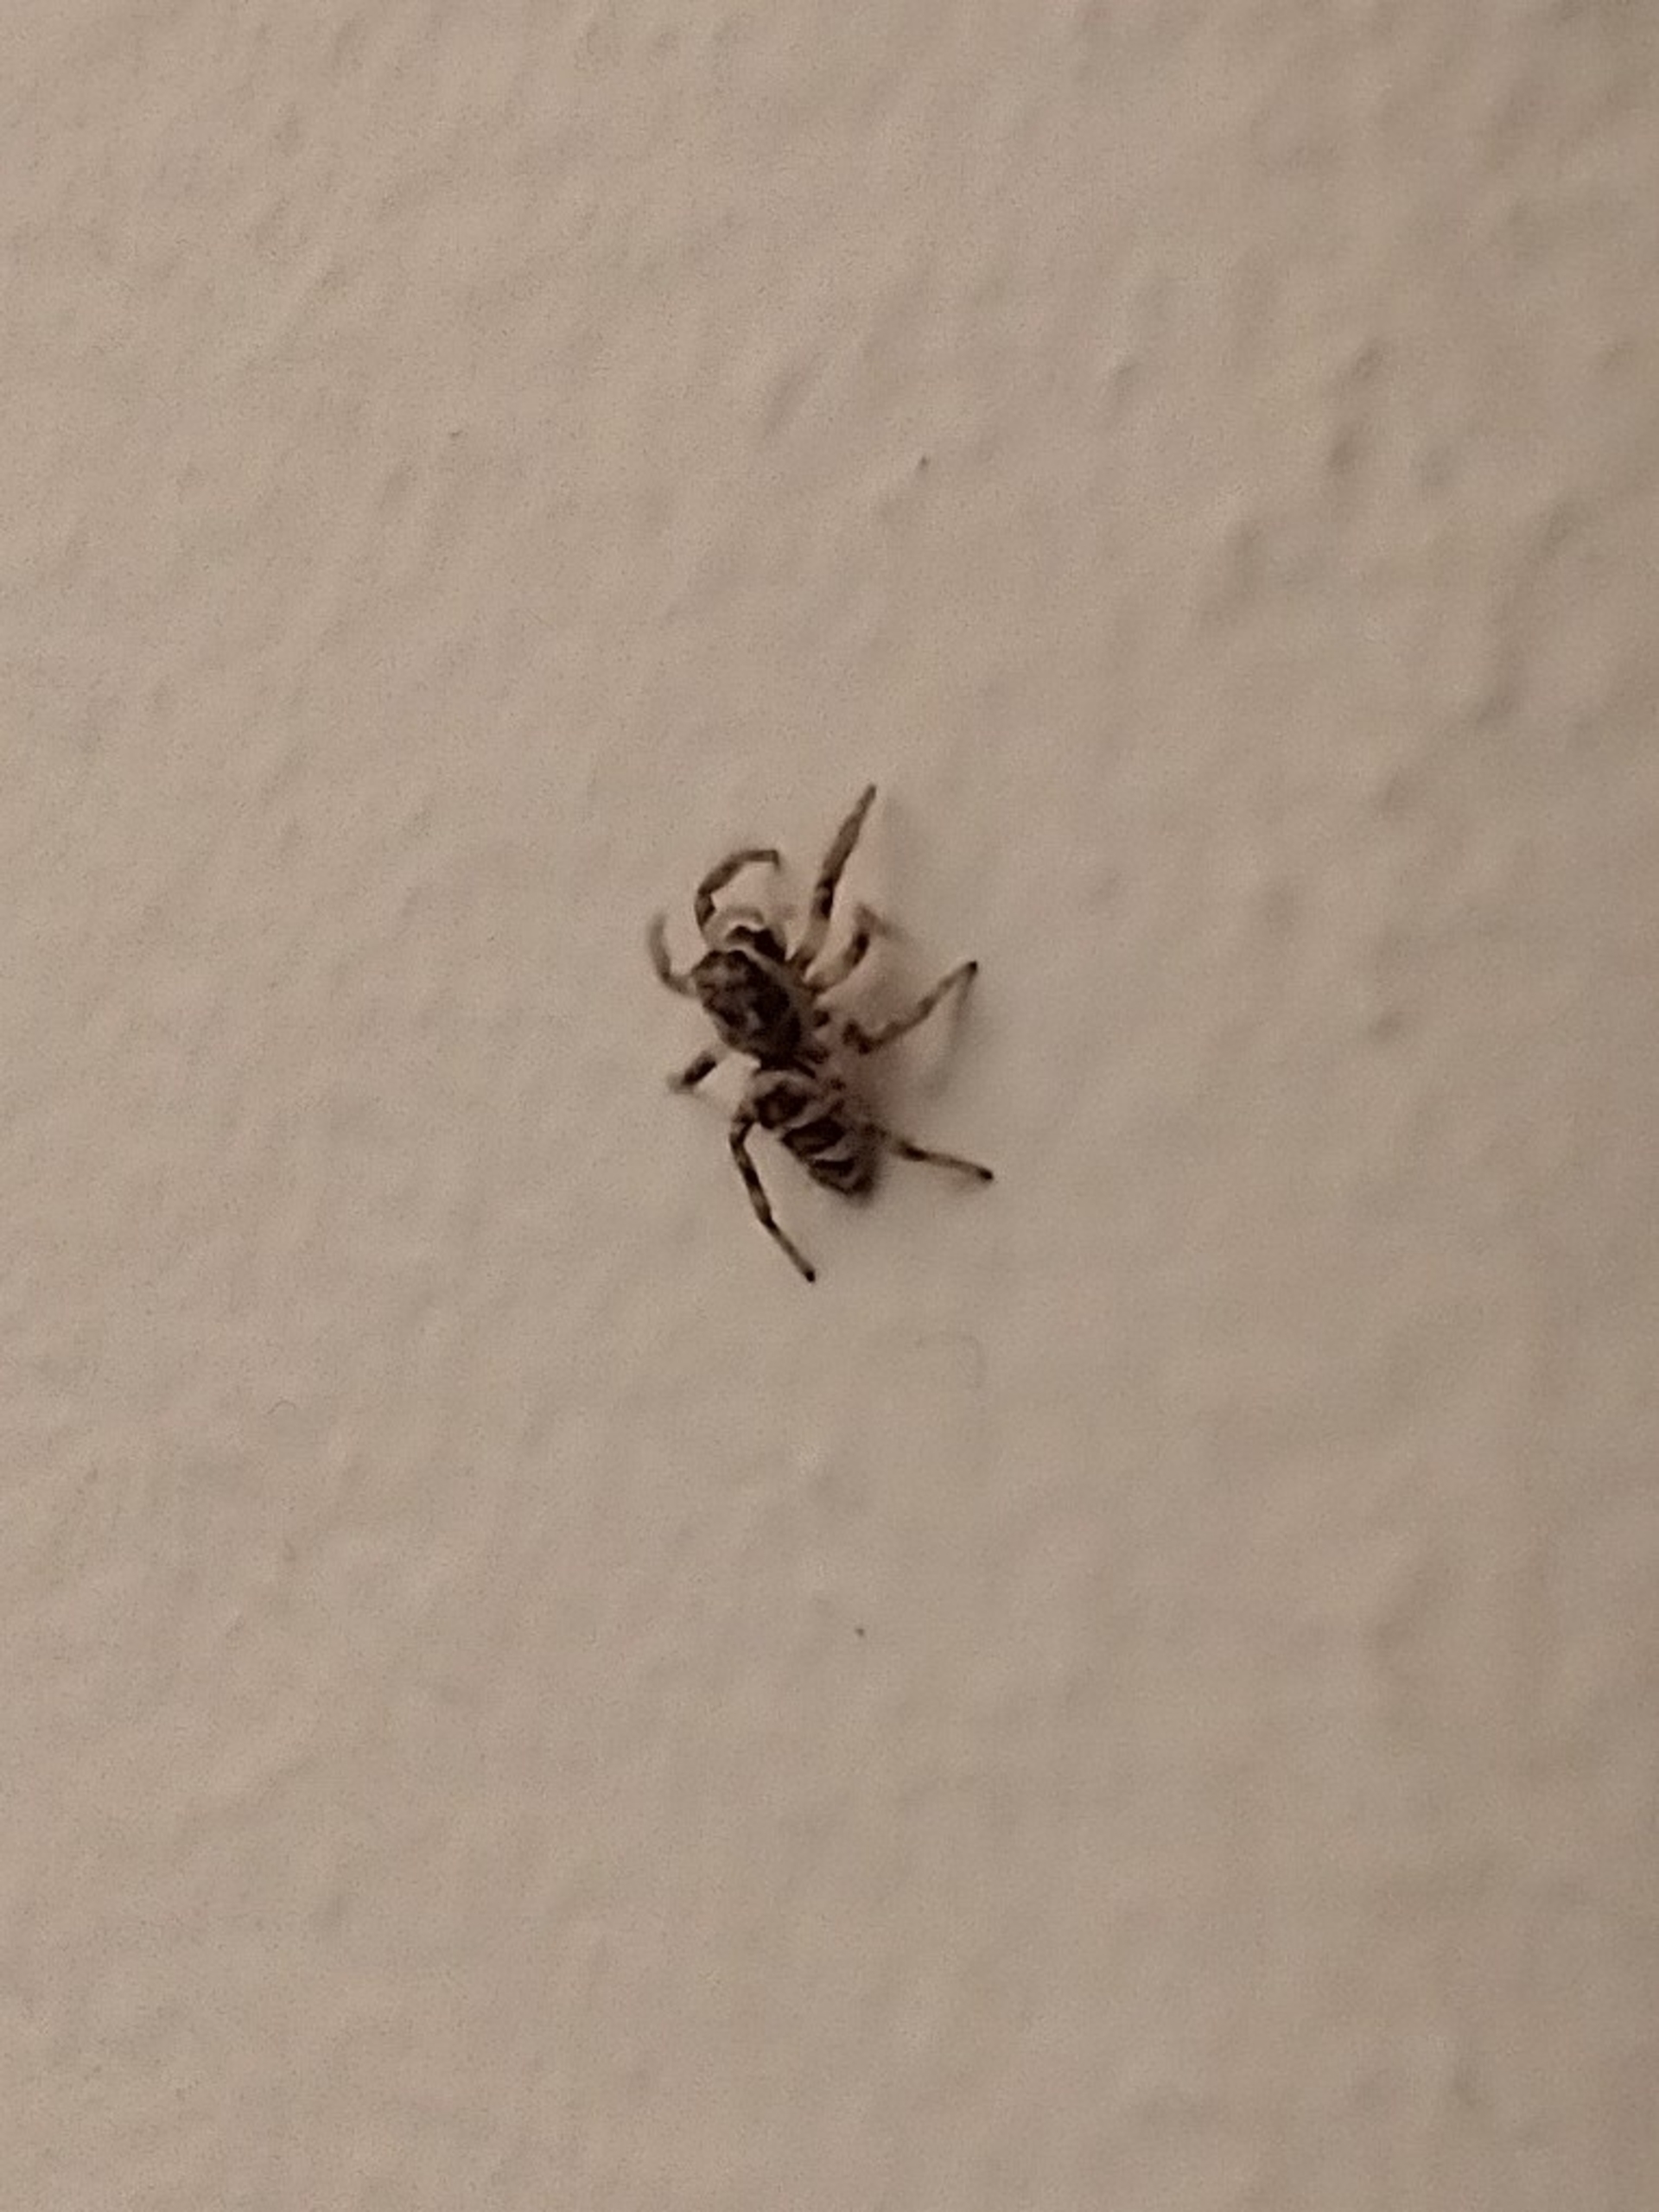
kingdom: Animalia
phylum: Arthropoda
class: Arachnida
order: Araneae
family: Salticidae
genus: Salticus
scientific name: Salticus scenicus
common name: Almindelig zebraedderkop
